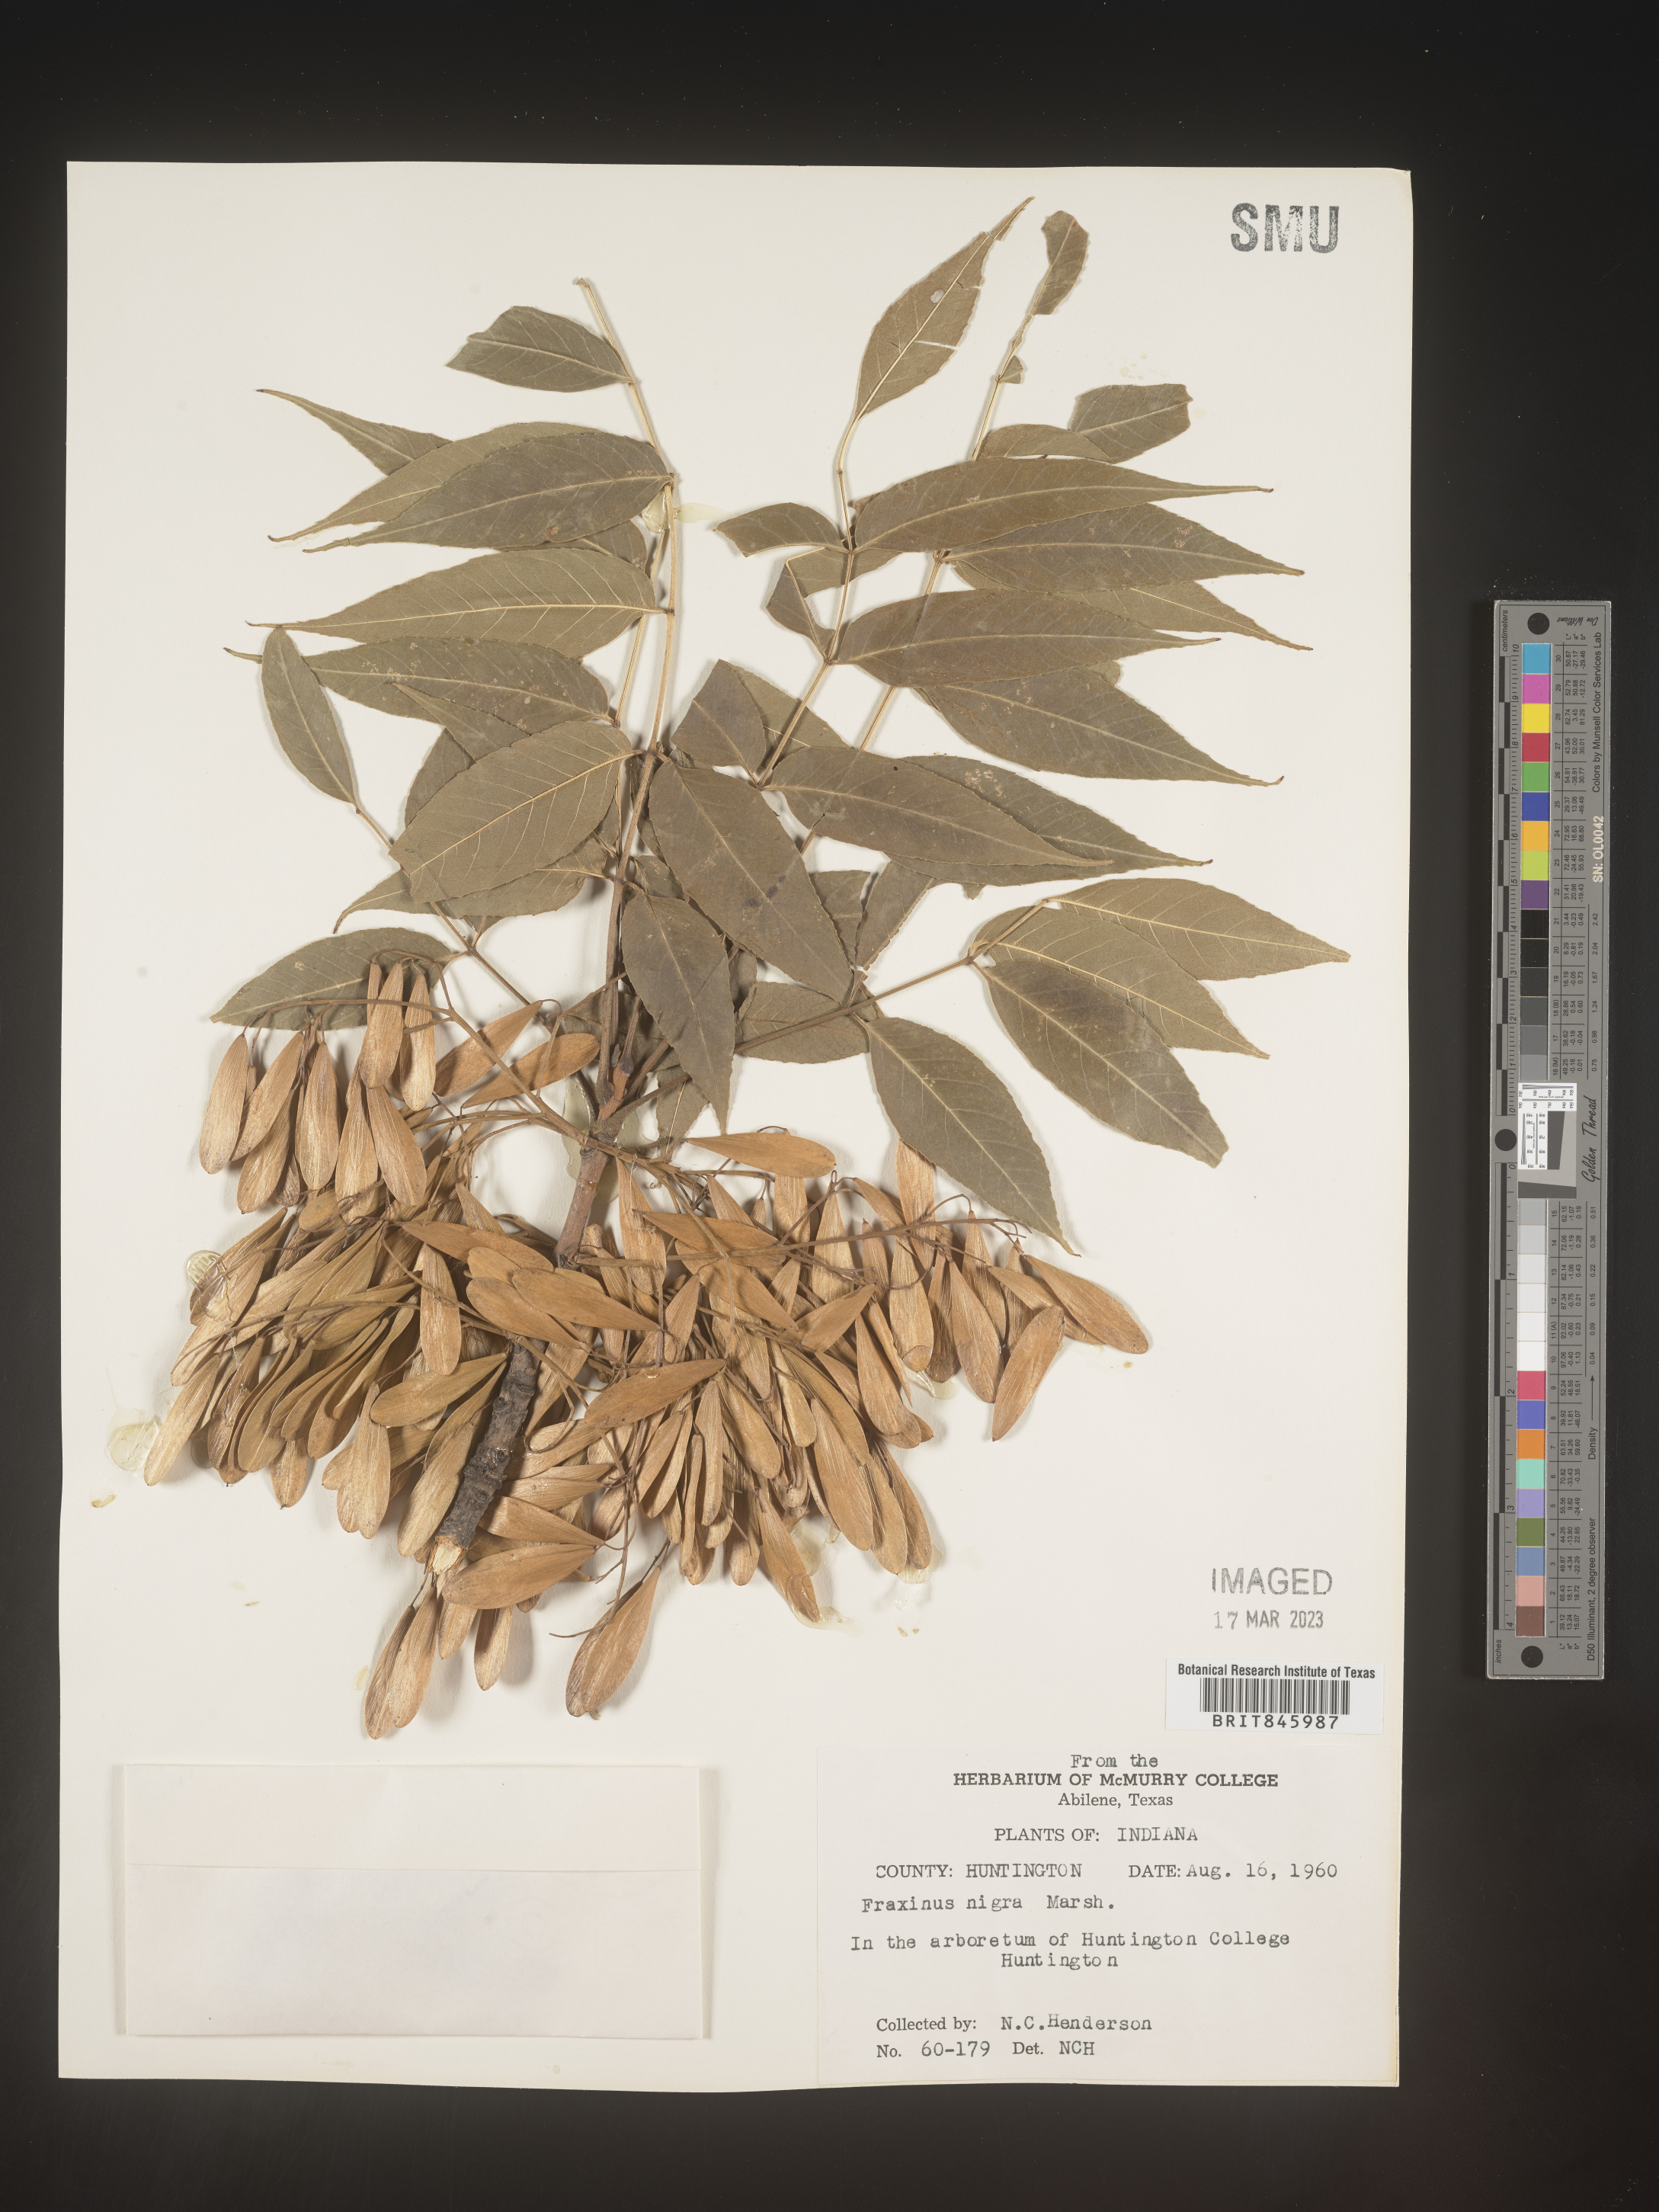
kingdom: Plantae
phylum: Tracheophyta
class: Magnoliopsida
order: Lamiales
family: Oleaceae
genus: Fraxinus
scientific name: Fraxinus nigra
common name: Black ash
